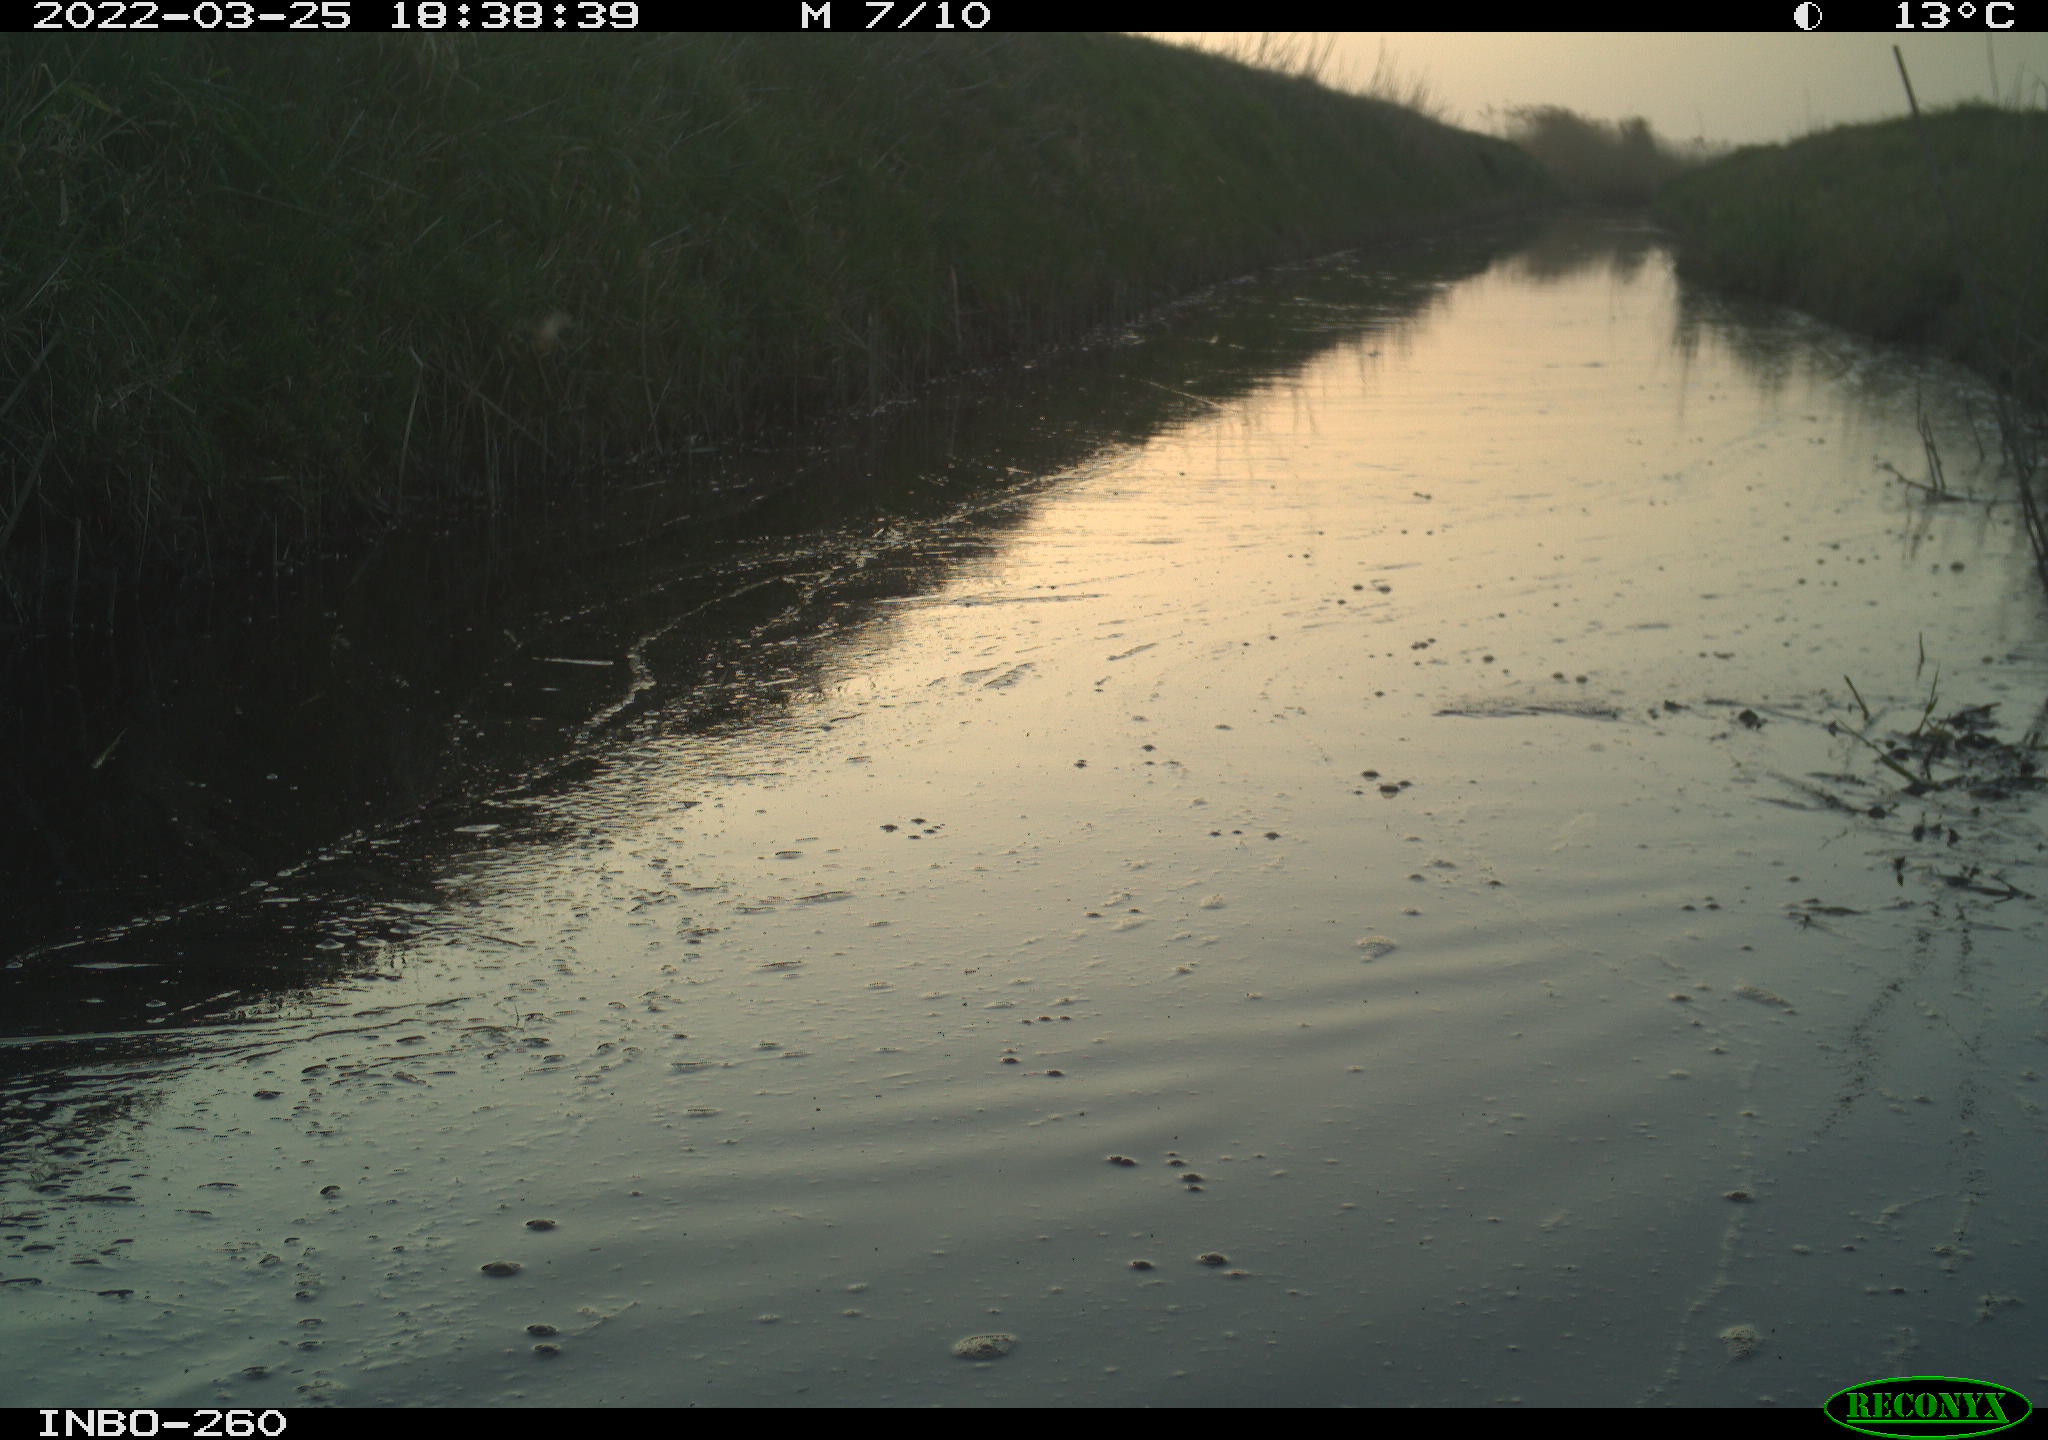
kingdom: Animalia
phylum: Chordata
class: Aves
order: Gruiformes
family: Rallidae
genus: Fulica
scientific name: Fulica atra
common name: Eurasian coot
